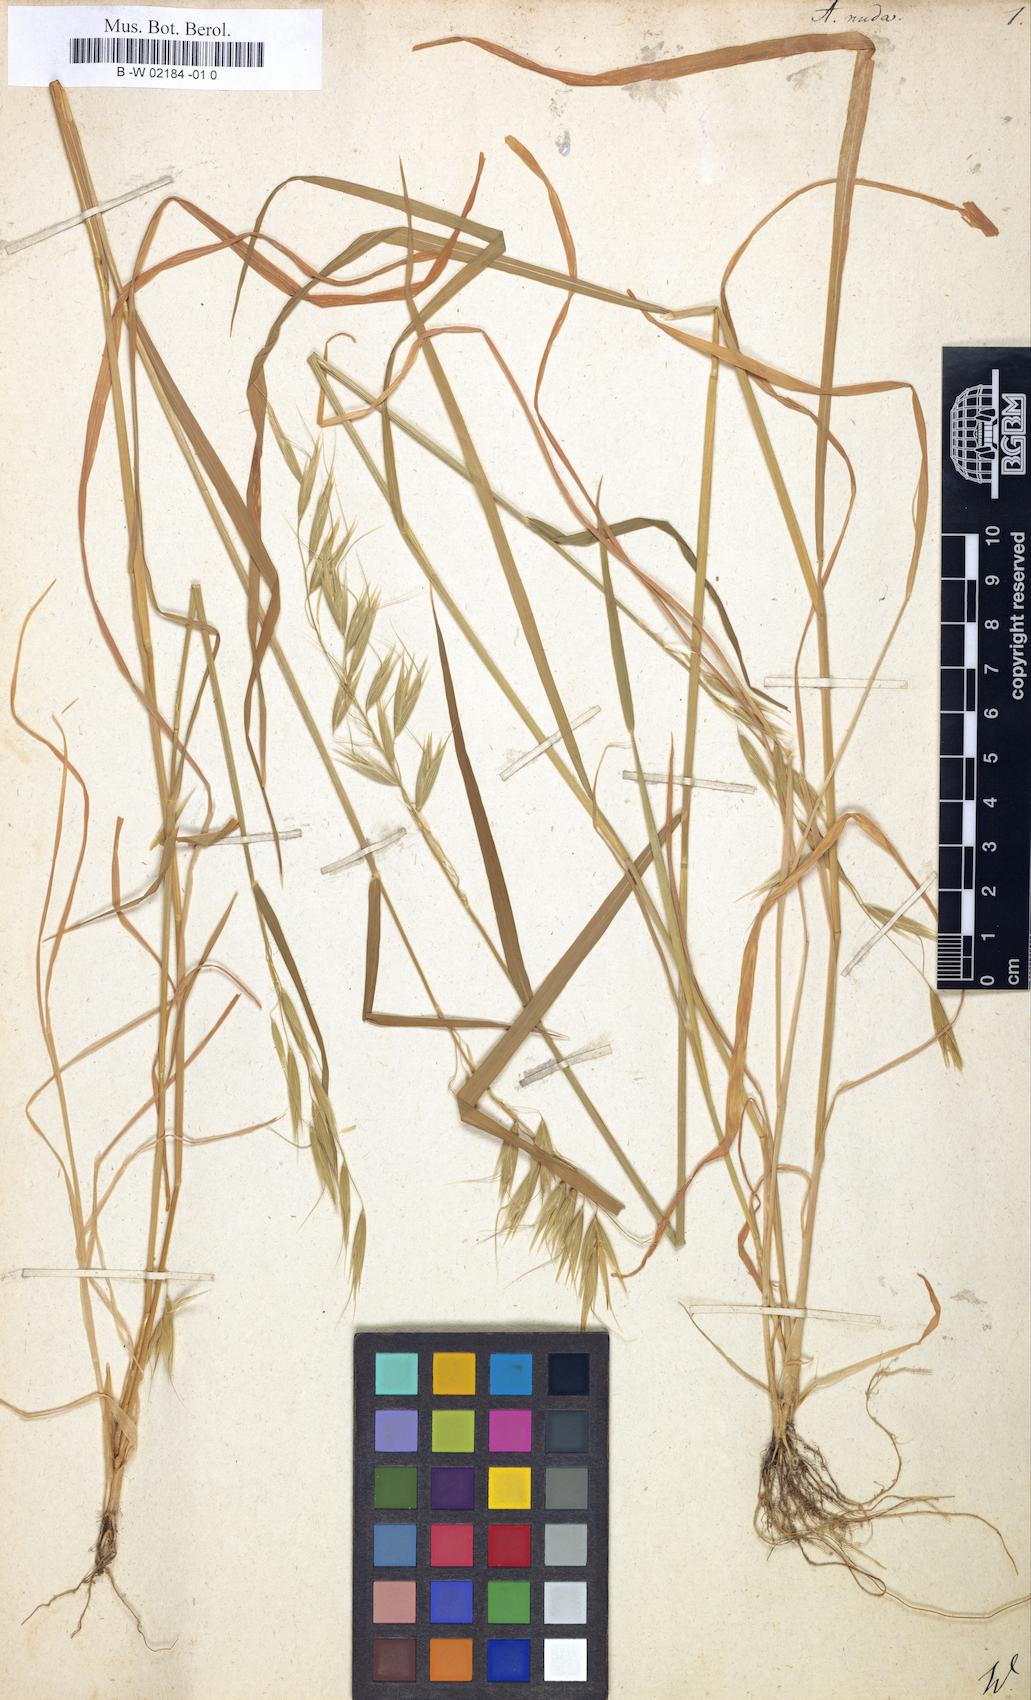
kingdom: Plantae
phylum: Tracheophyta
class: Liliopsida
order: Poales
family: Poaceae
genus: Avena
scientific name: Avena nuda
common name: Naked oat
